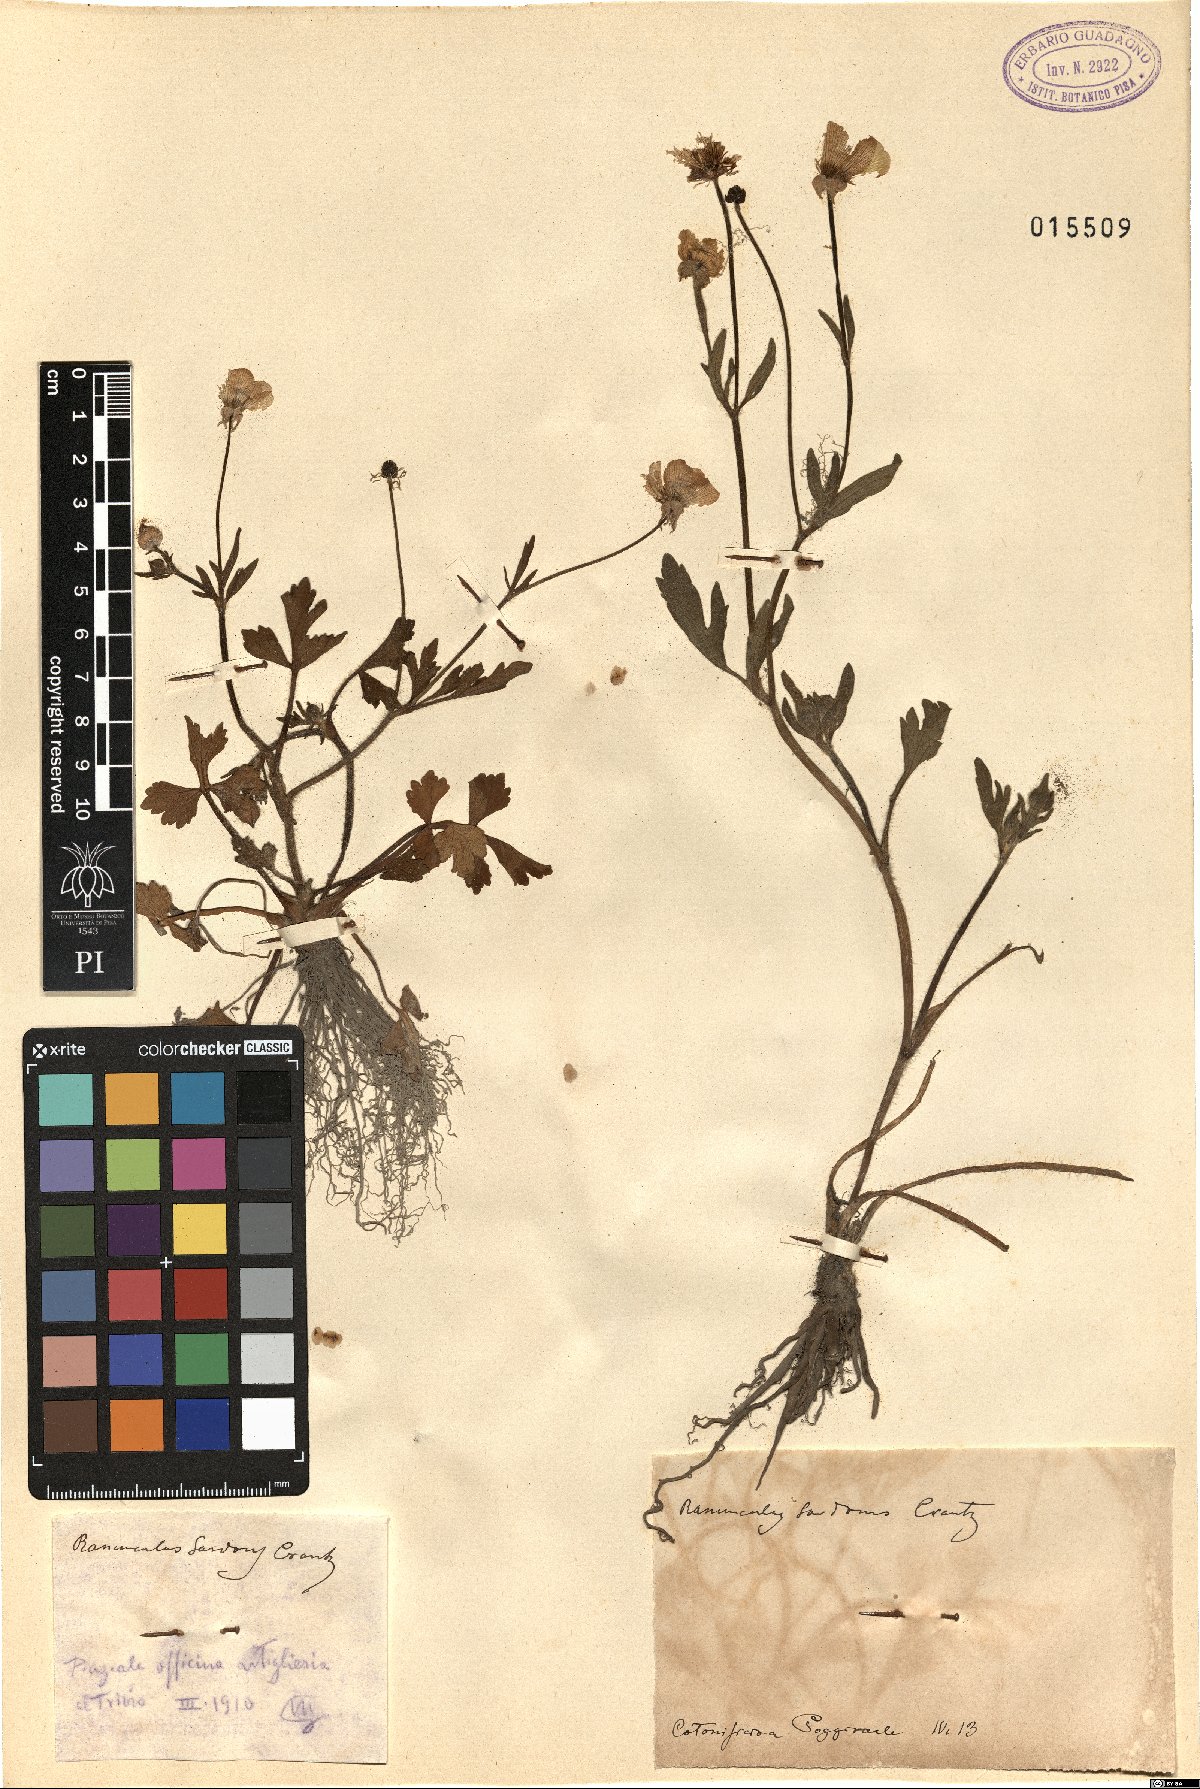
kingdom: Plantae
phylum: Tracheophyta
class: Magnoliopsida
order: Ranunculales
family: Ranunculaceae
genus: Ranunculus
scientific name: Ranunculus sardous
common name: Hairy buttercup
